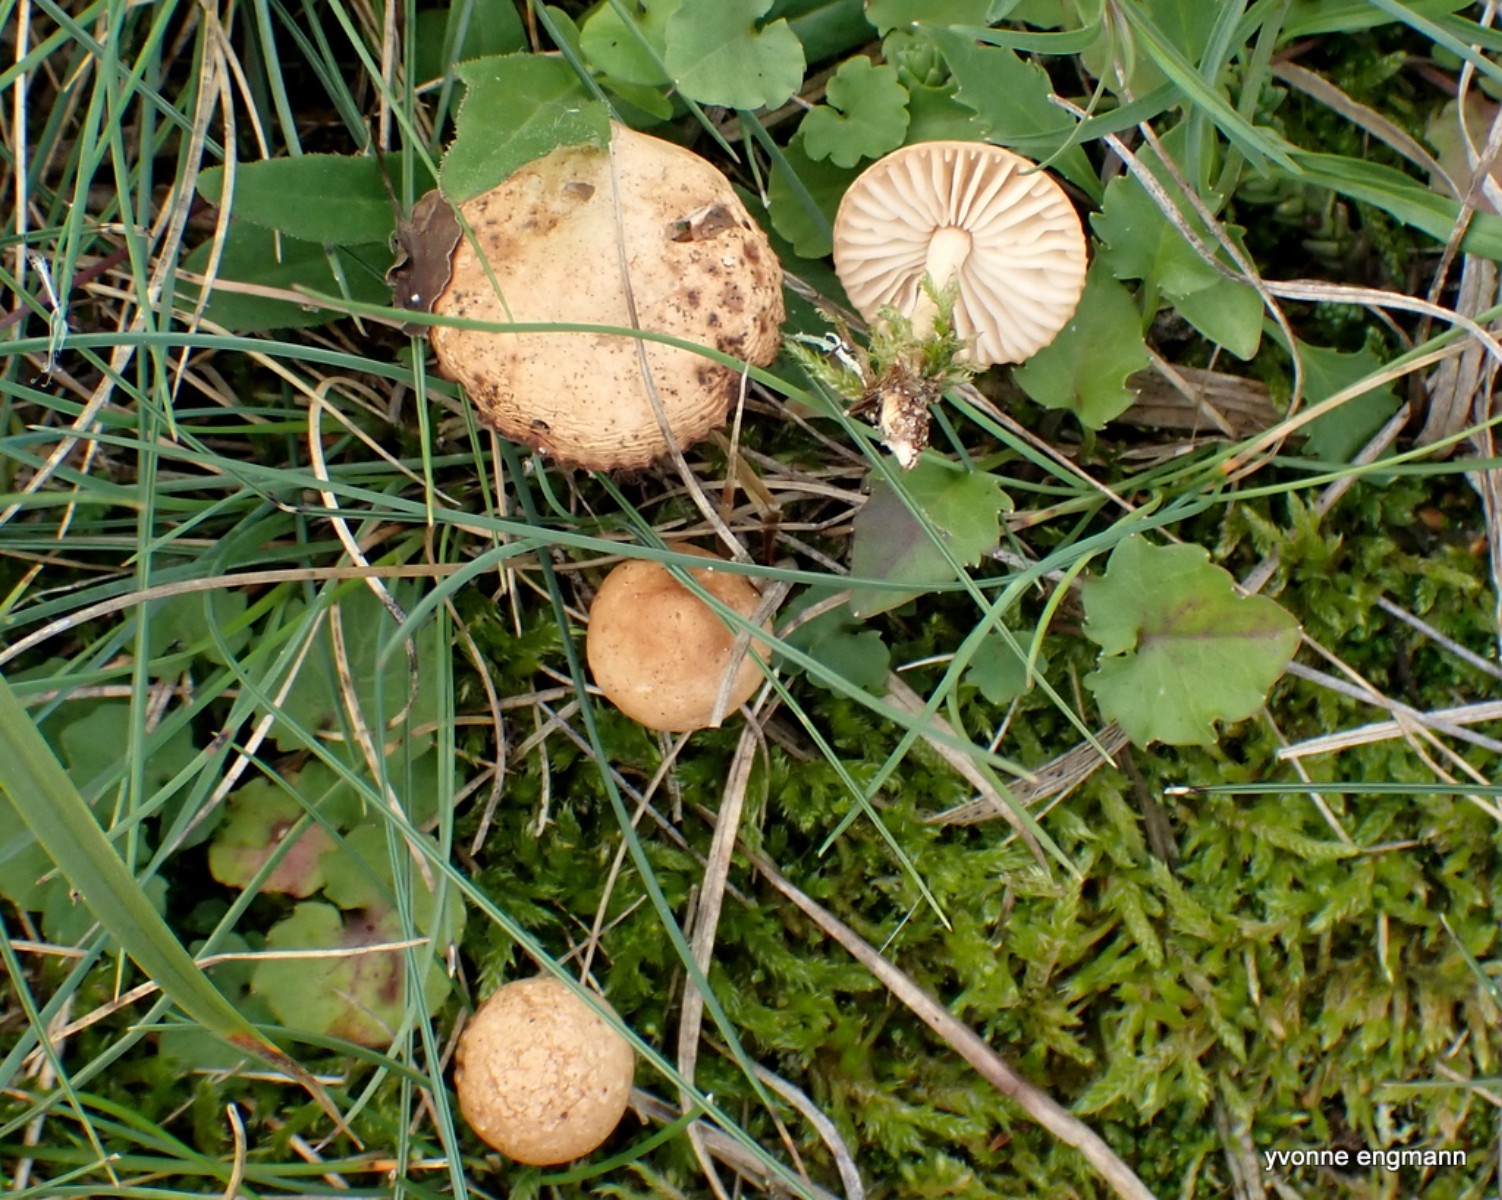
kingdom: Fungi
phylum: Basidiomycota
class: Agaricomycetes
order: Agaricales
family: Marasmiaceae
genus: Marasmius
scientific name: Marasmius oreades
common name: elledans-bruskhat
